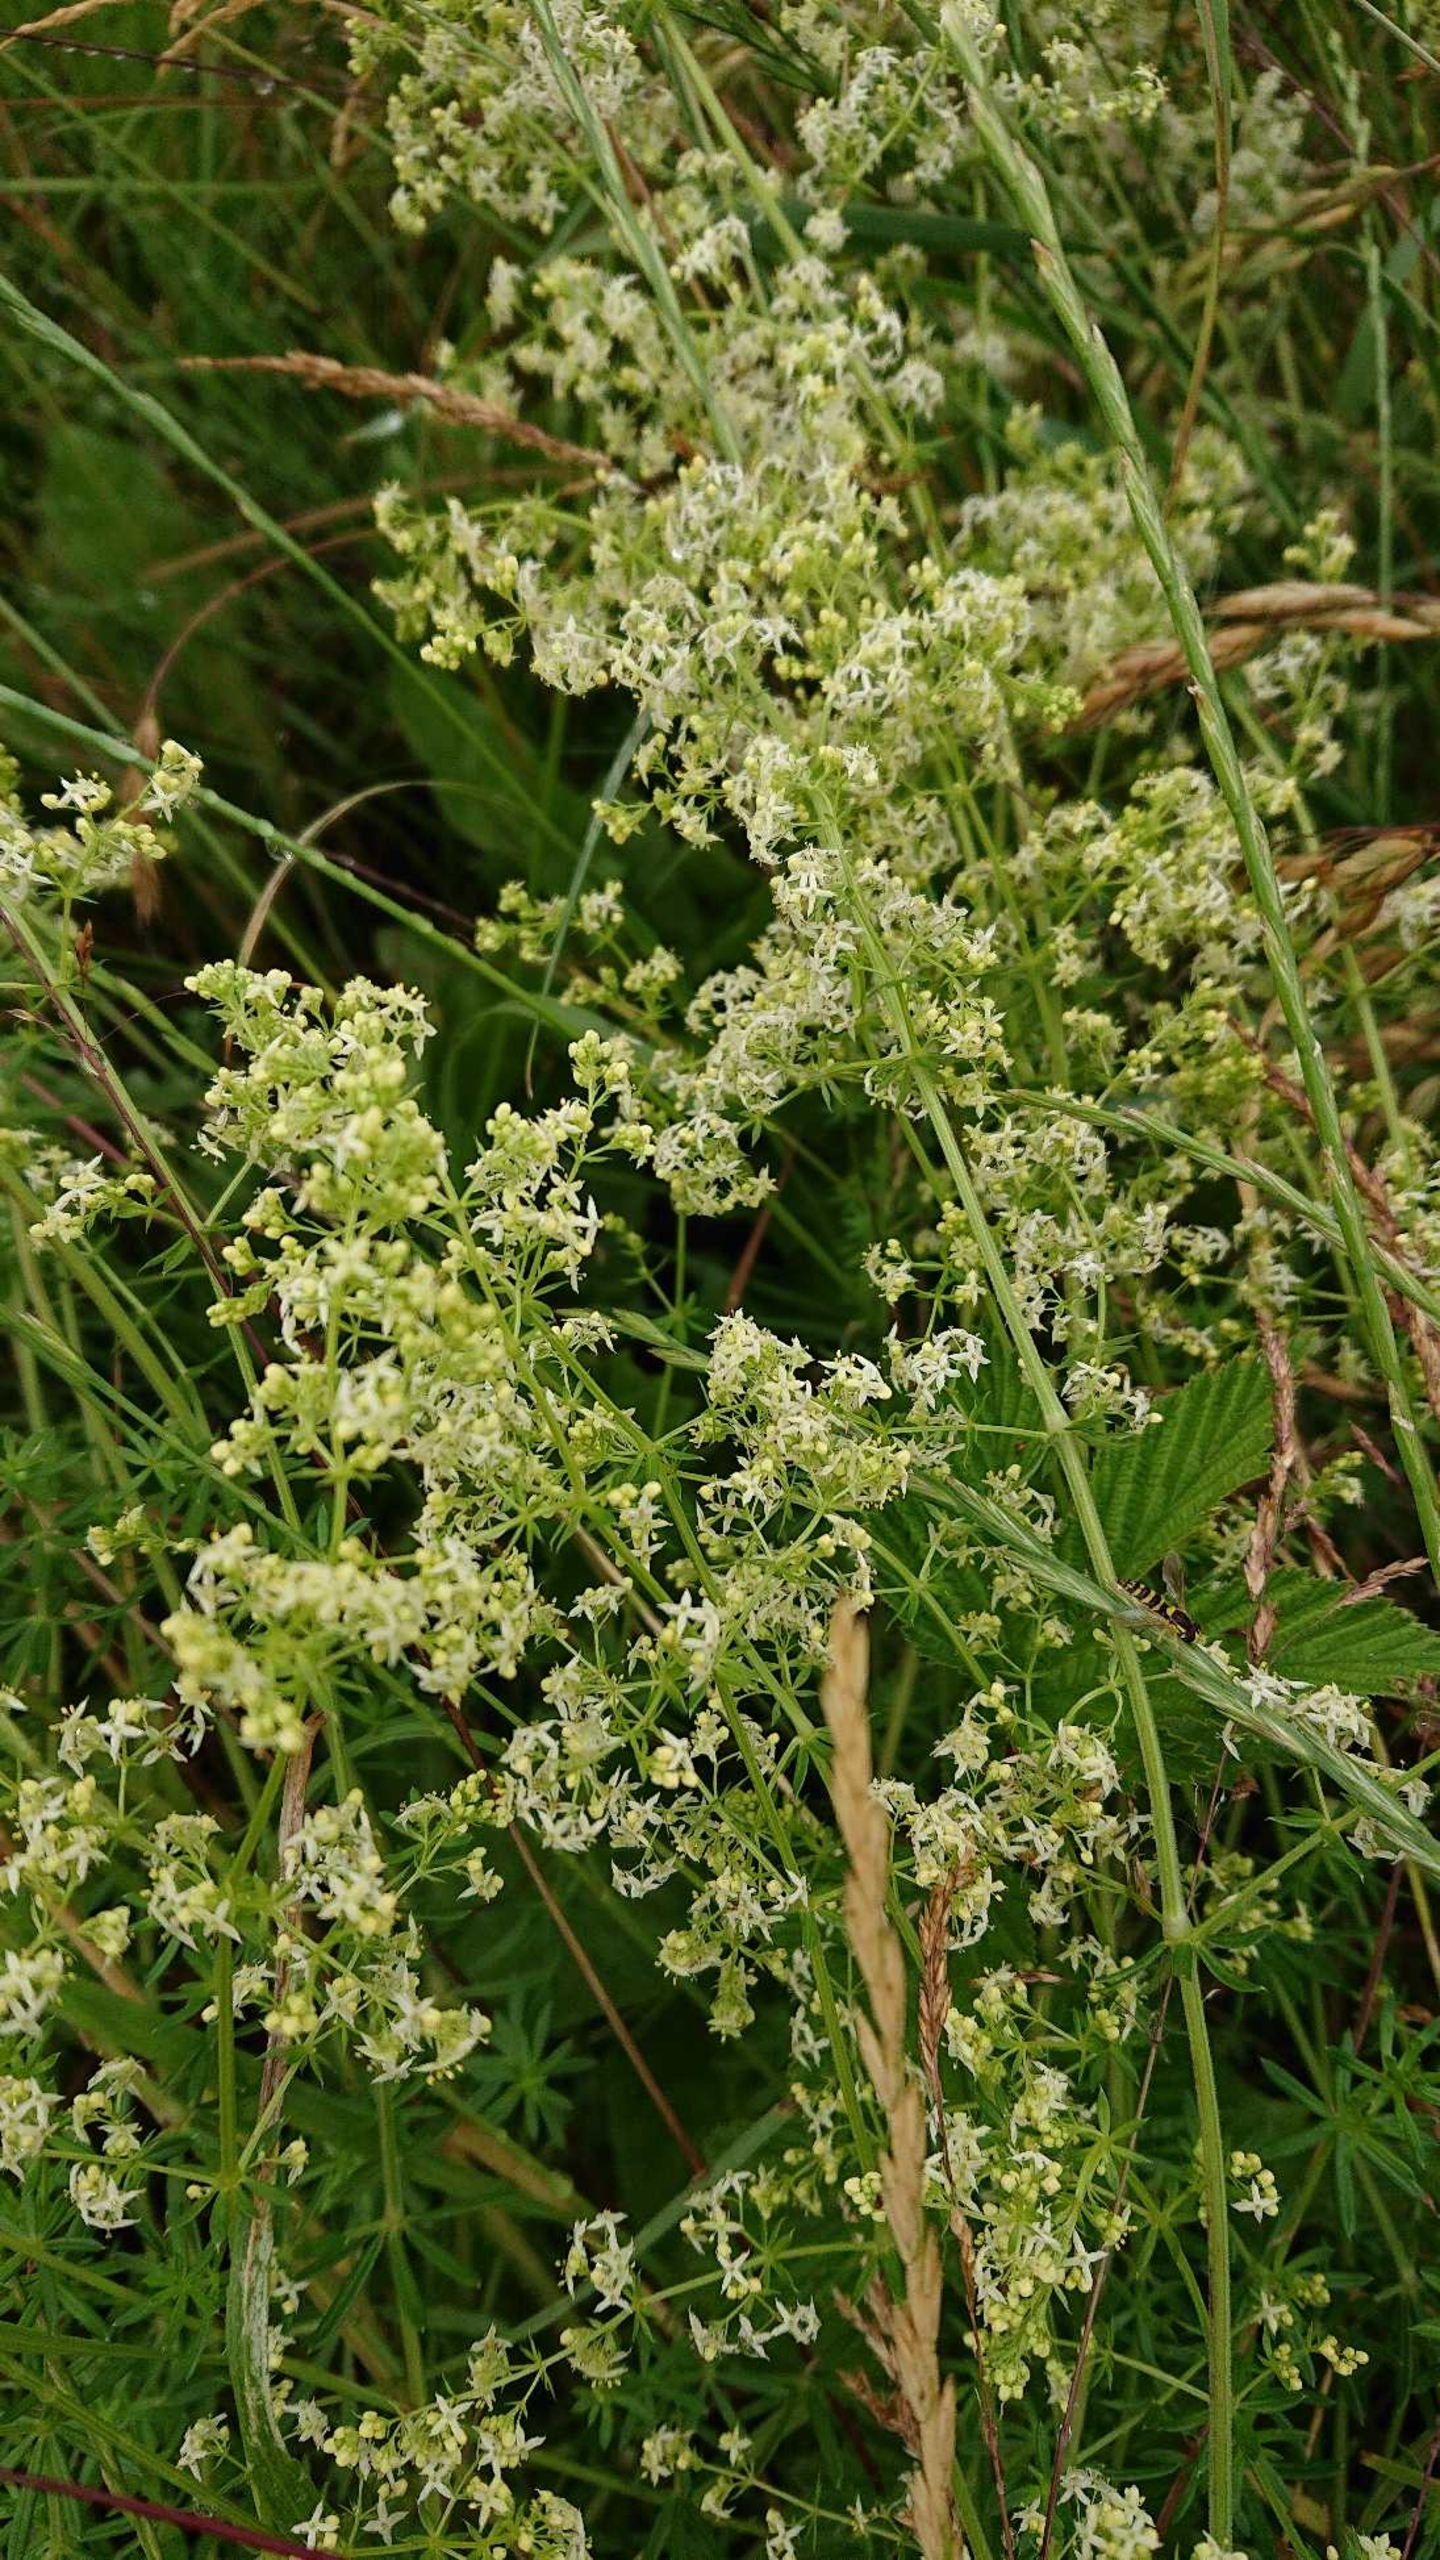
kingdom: Plantae
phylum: Tracheophyta
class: Magnoliopsida
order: Gentianales
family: Rubiaceae
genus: Galium
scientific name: Galium mollugo
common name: Hvid snerre
